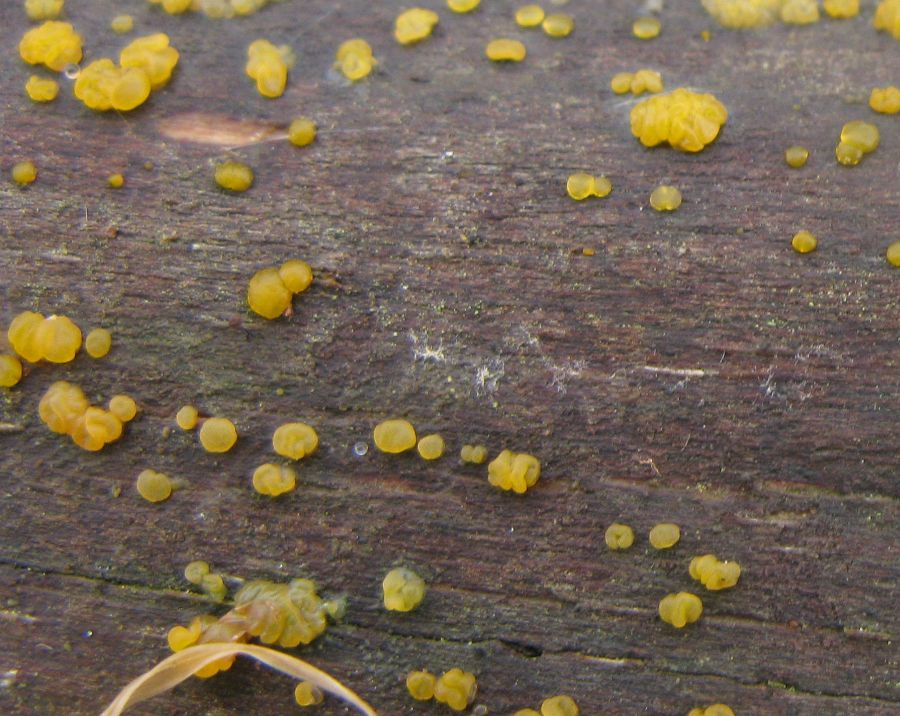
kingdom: Fungi
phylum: Basidiomycota
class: Dacrymycetes
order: Dacrymycetales
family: Dacrymycetaceae
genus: Dacrymyces
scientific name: Dacrymyces lacrymalis
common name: rynket tåresvamp
